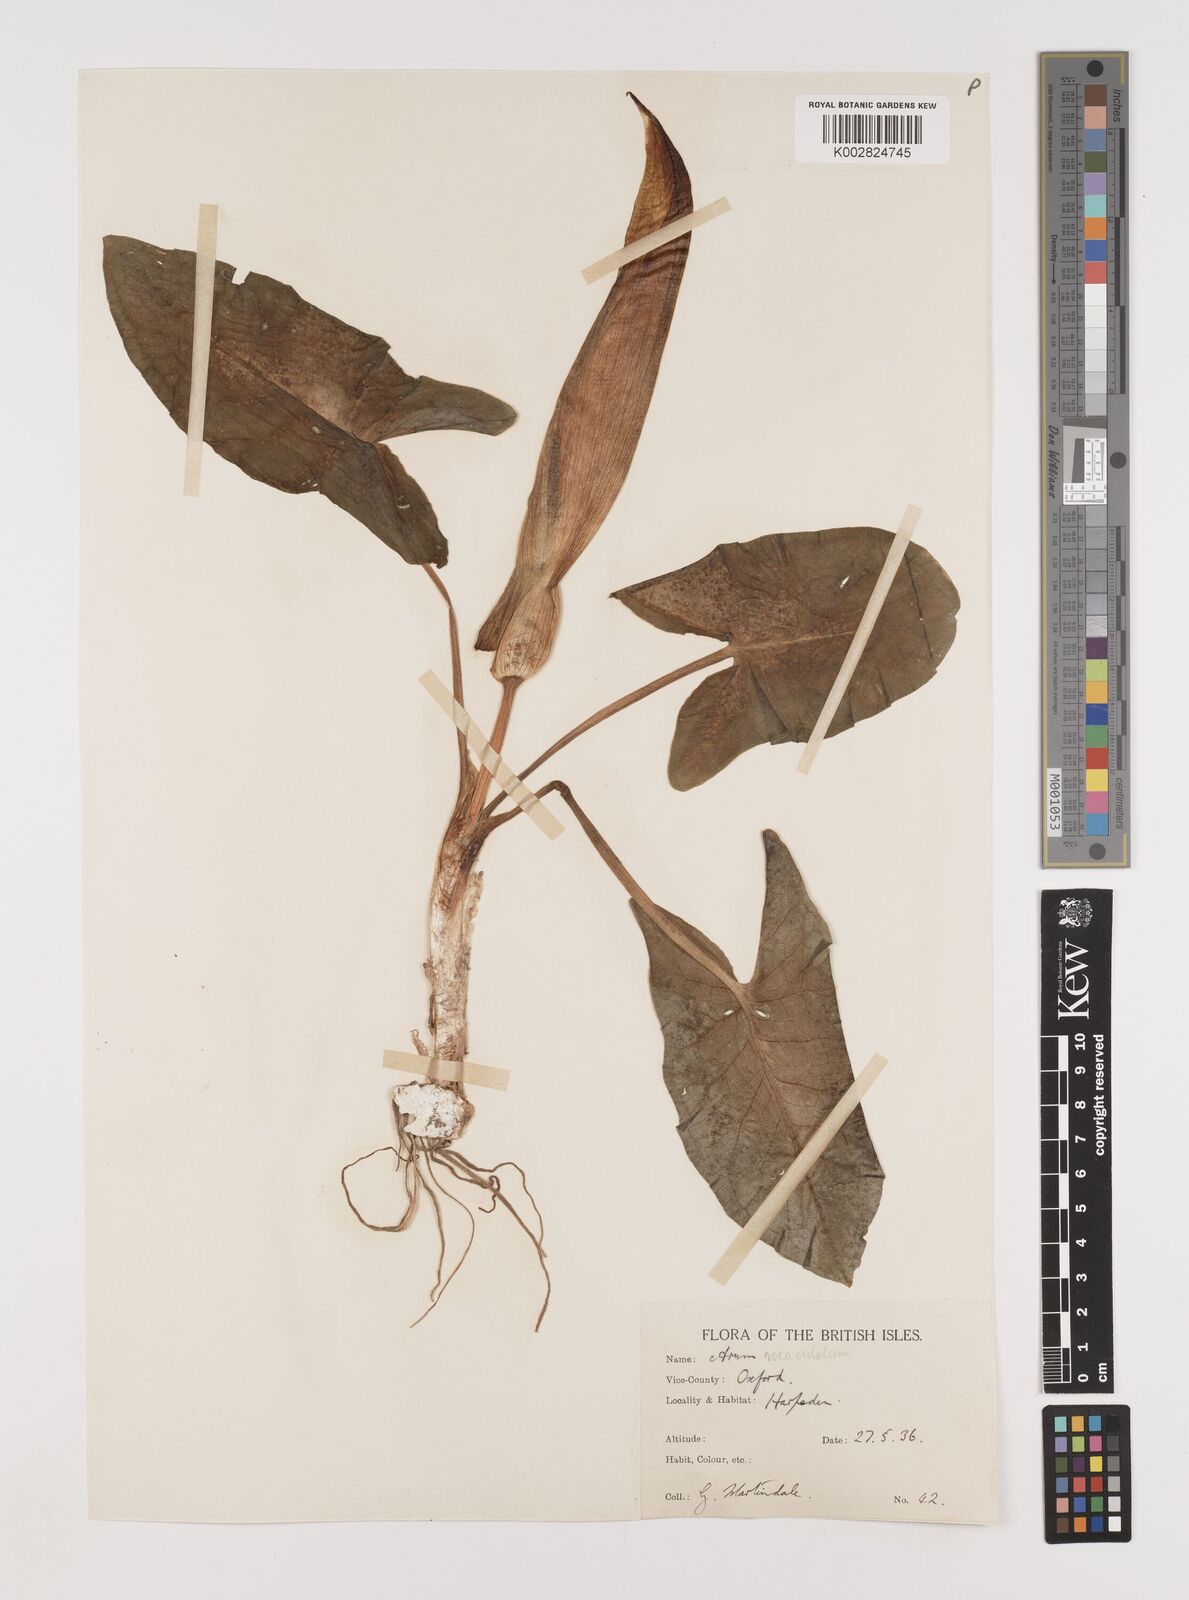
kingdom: Plantae
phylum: Tracheophyta
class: Liliopsida
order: Alismatales
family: Araceae
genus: Arum
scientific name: Arum maculatum
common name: Lords-and-ladies
